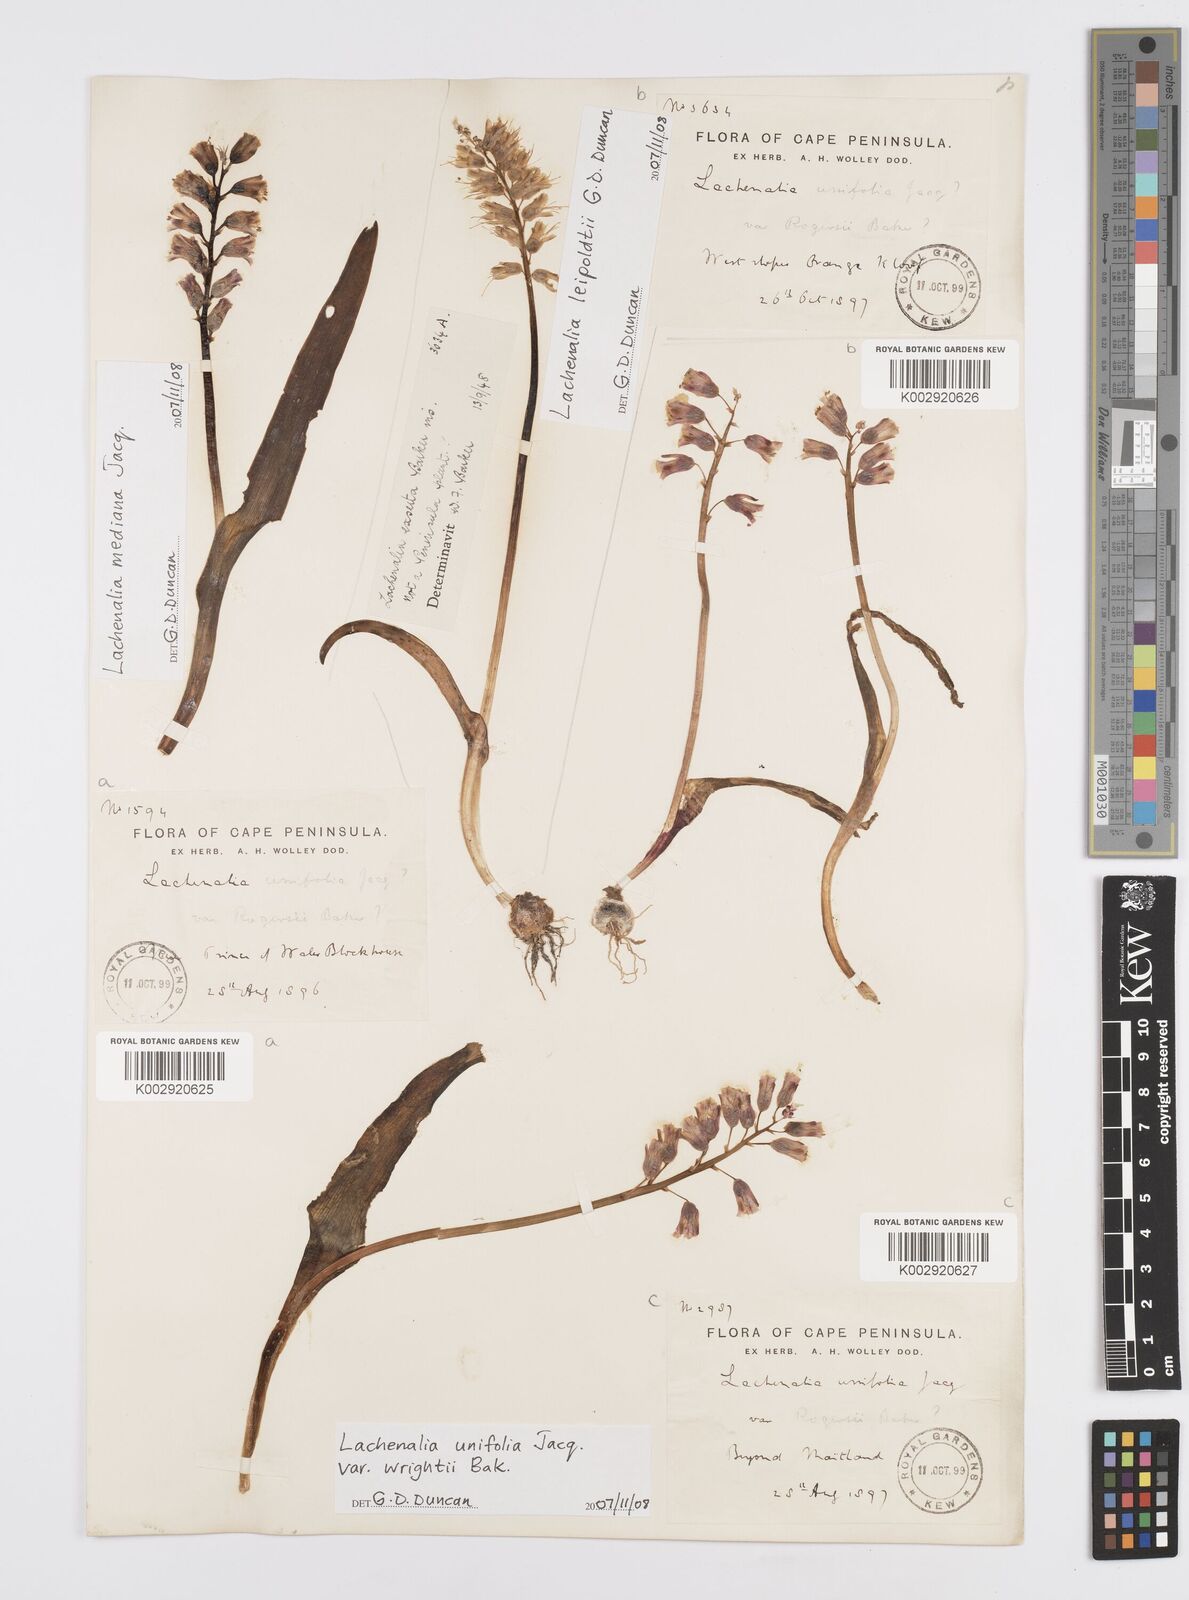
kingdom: Plantae
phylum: Tracheophyta
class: Liliopsida
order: Asparagales
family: Asparagaceae
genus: Lachenalia
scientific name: Lachenalia unifolia
